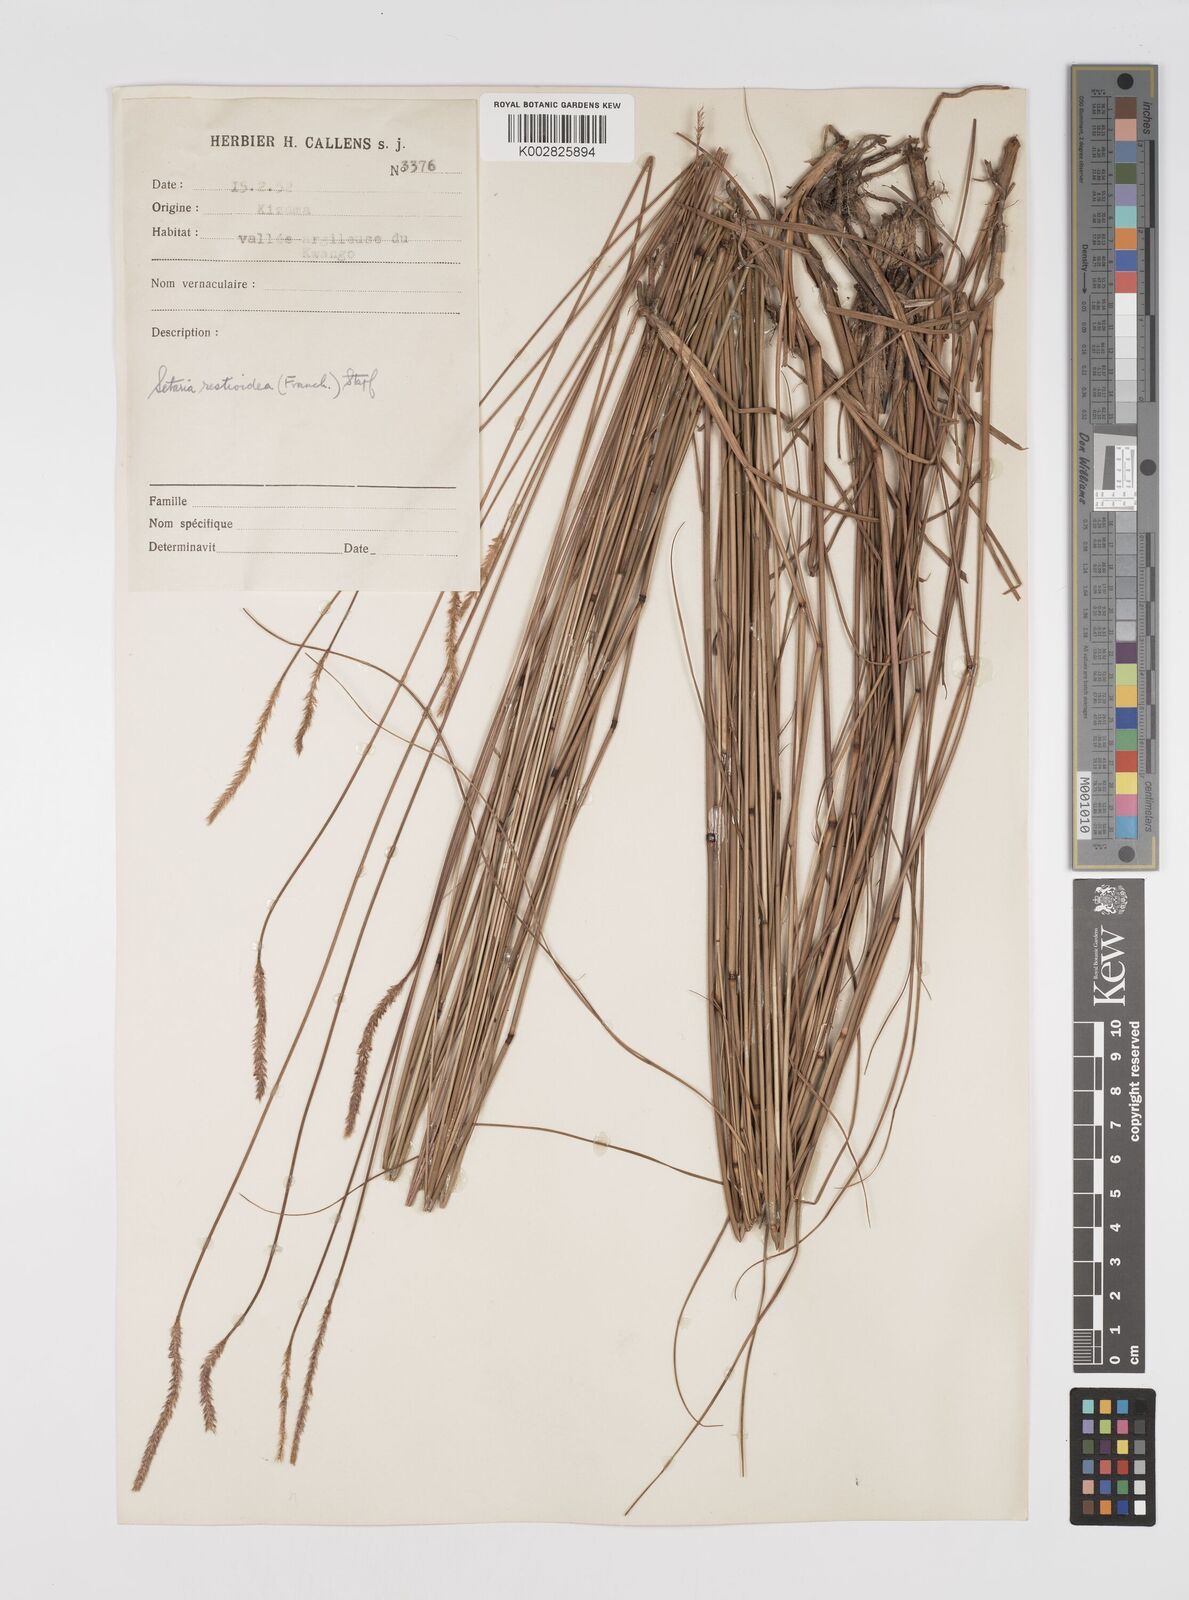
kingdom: Plantae
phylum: Tracheophyta
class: Liliopsida
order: Poales
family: Poaceae
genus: Setaria
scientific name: Setaria restioidea
